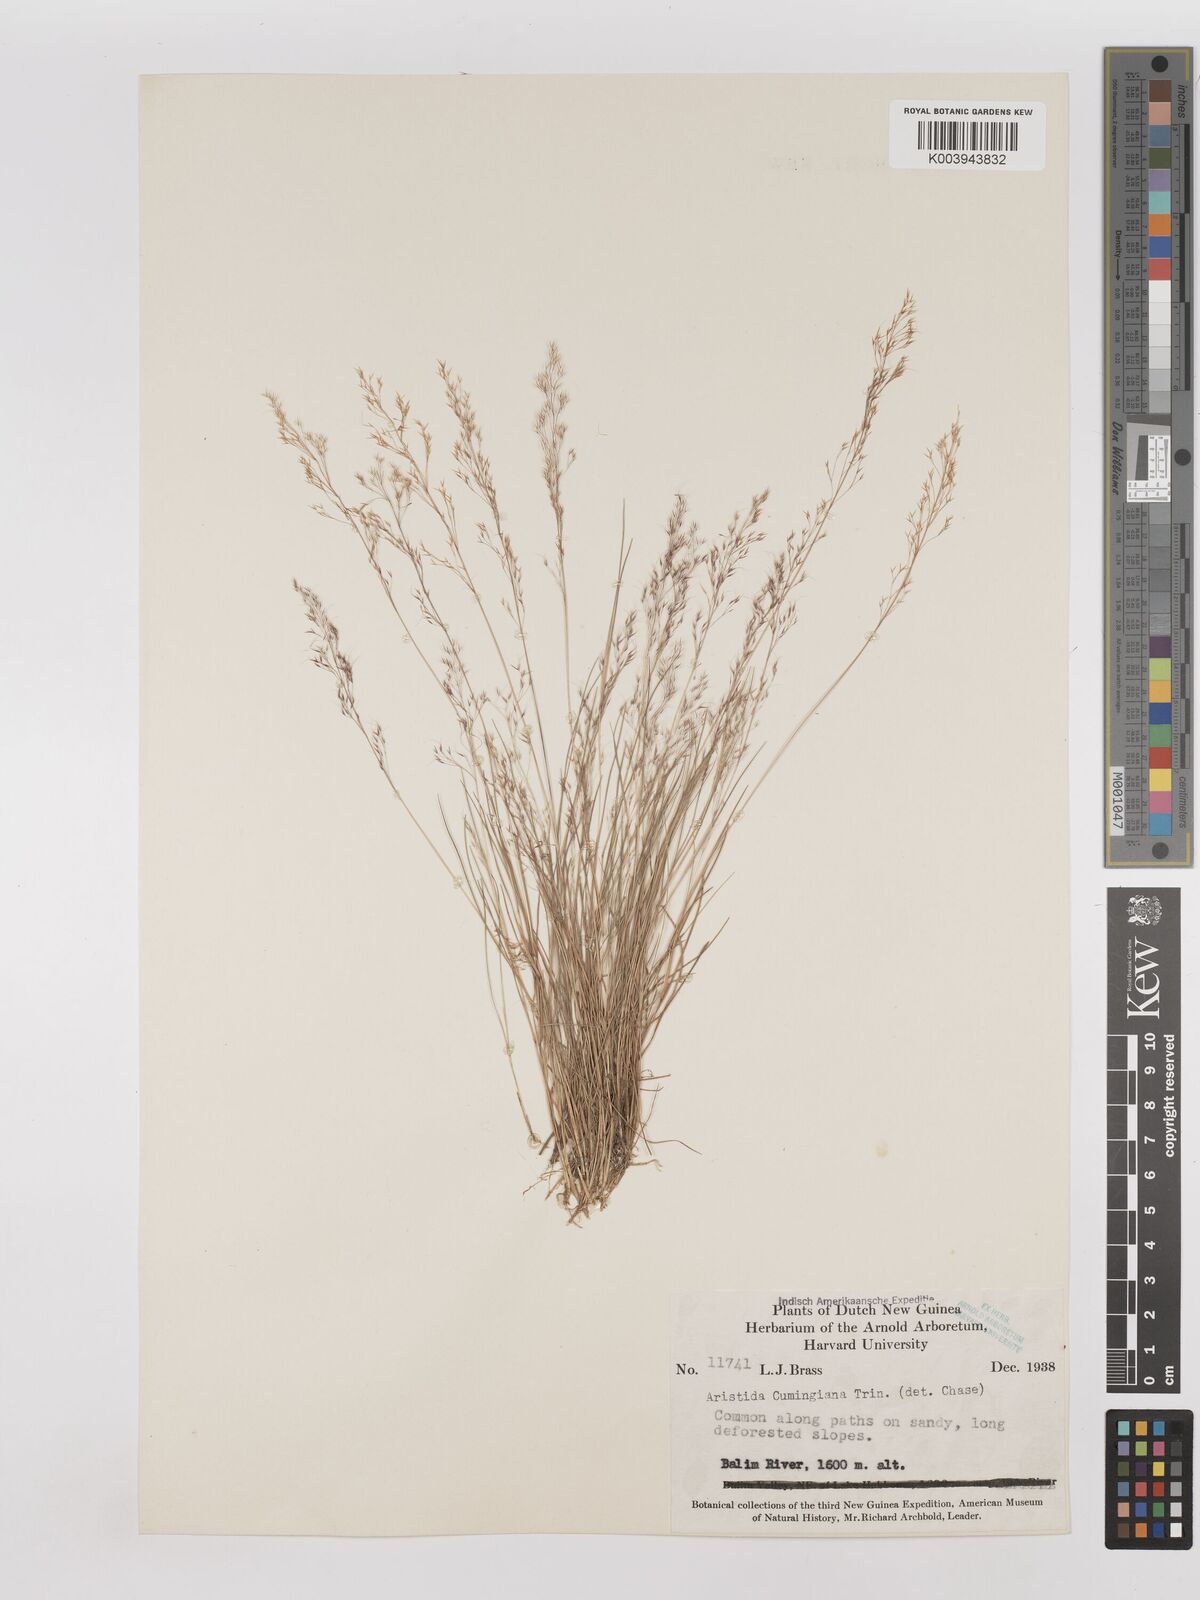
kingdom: Plantae
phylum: Tracheophyta
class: Liliopsida
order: Poales
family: Poaceae
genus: Aristida
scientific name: Aristida cumingiana
